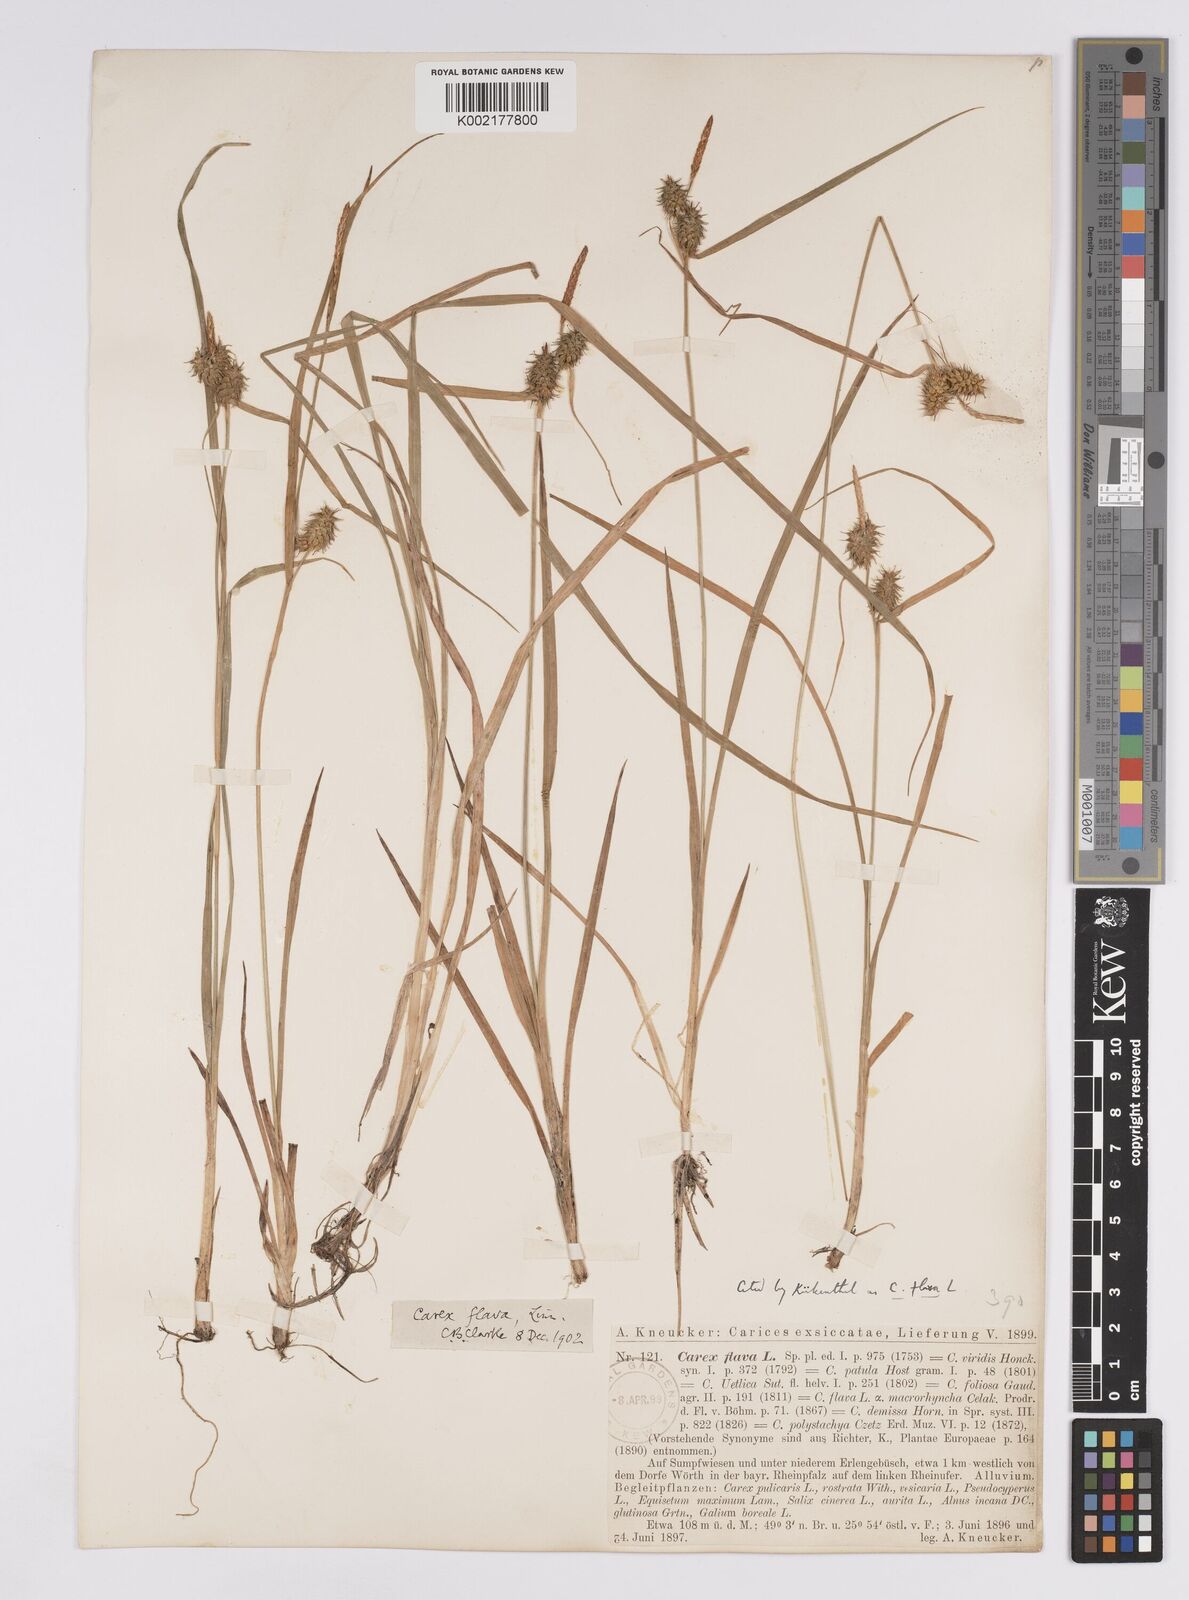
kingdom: Plantae
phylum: Tracheophyta
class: Liliopsida
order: Poales
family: Cyperaceae
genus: Carex
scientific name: Carex flava
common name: Large yellow-sedge
